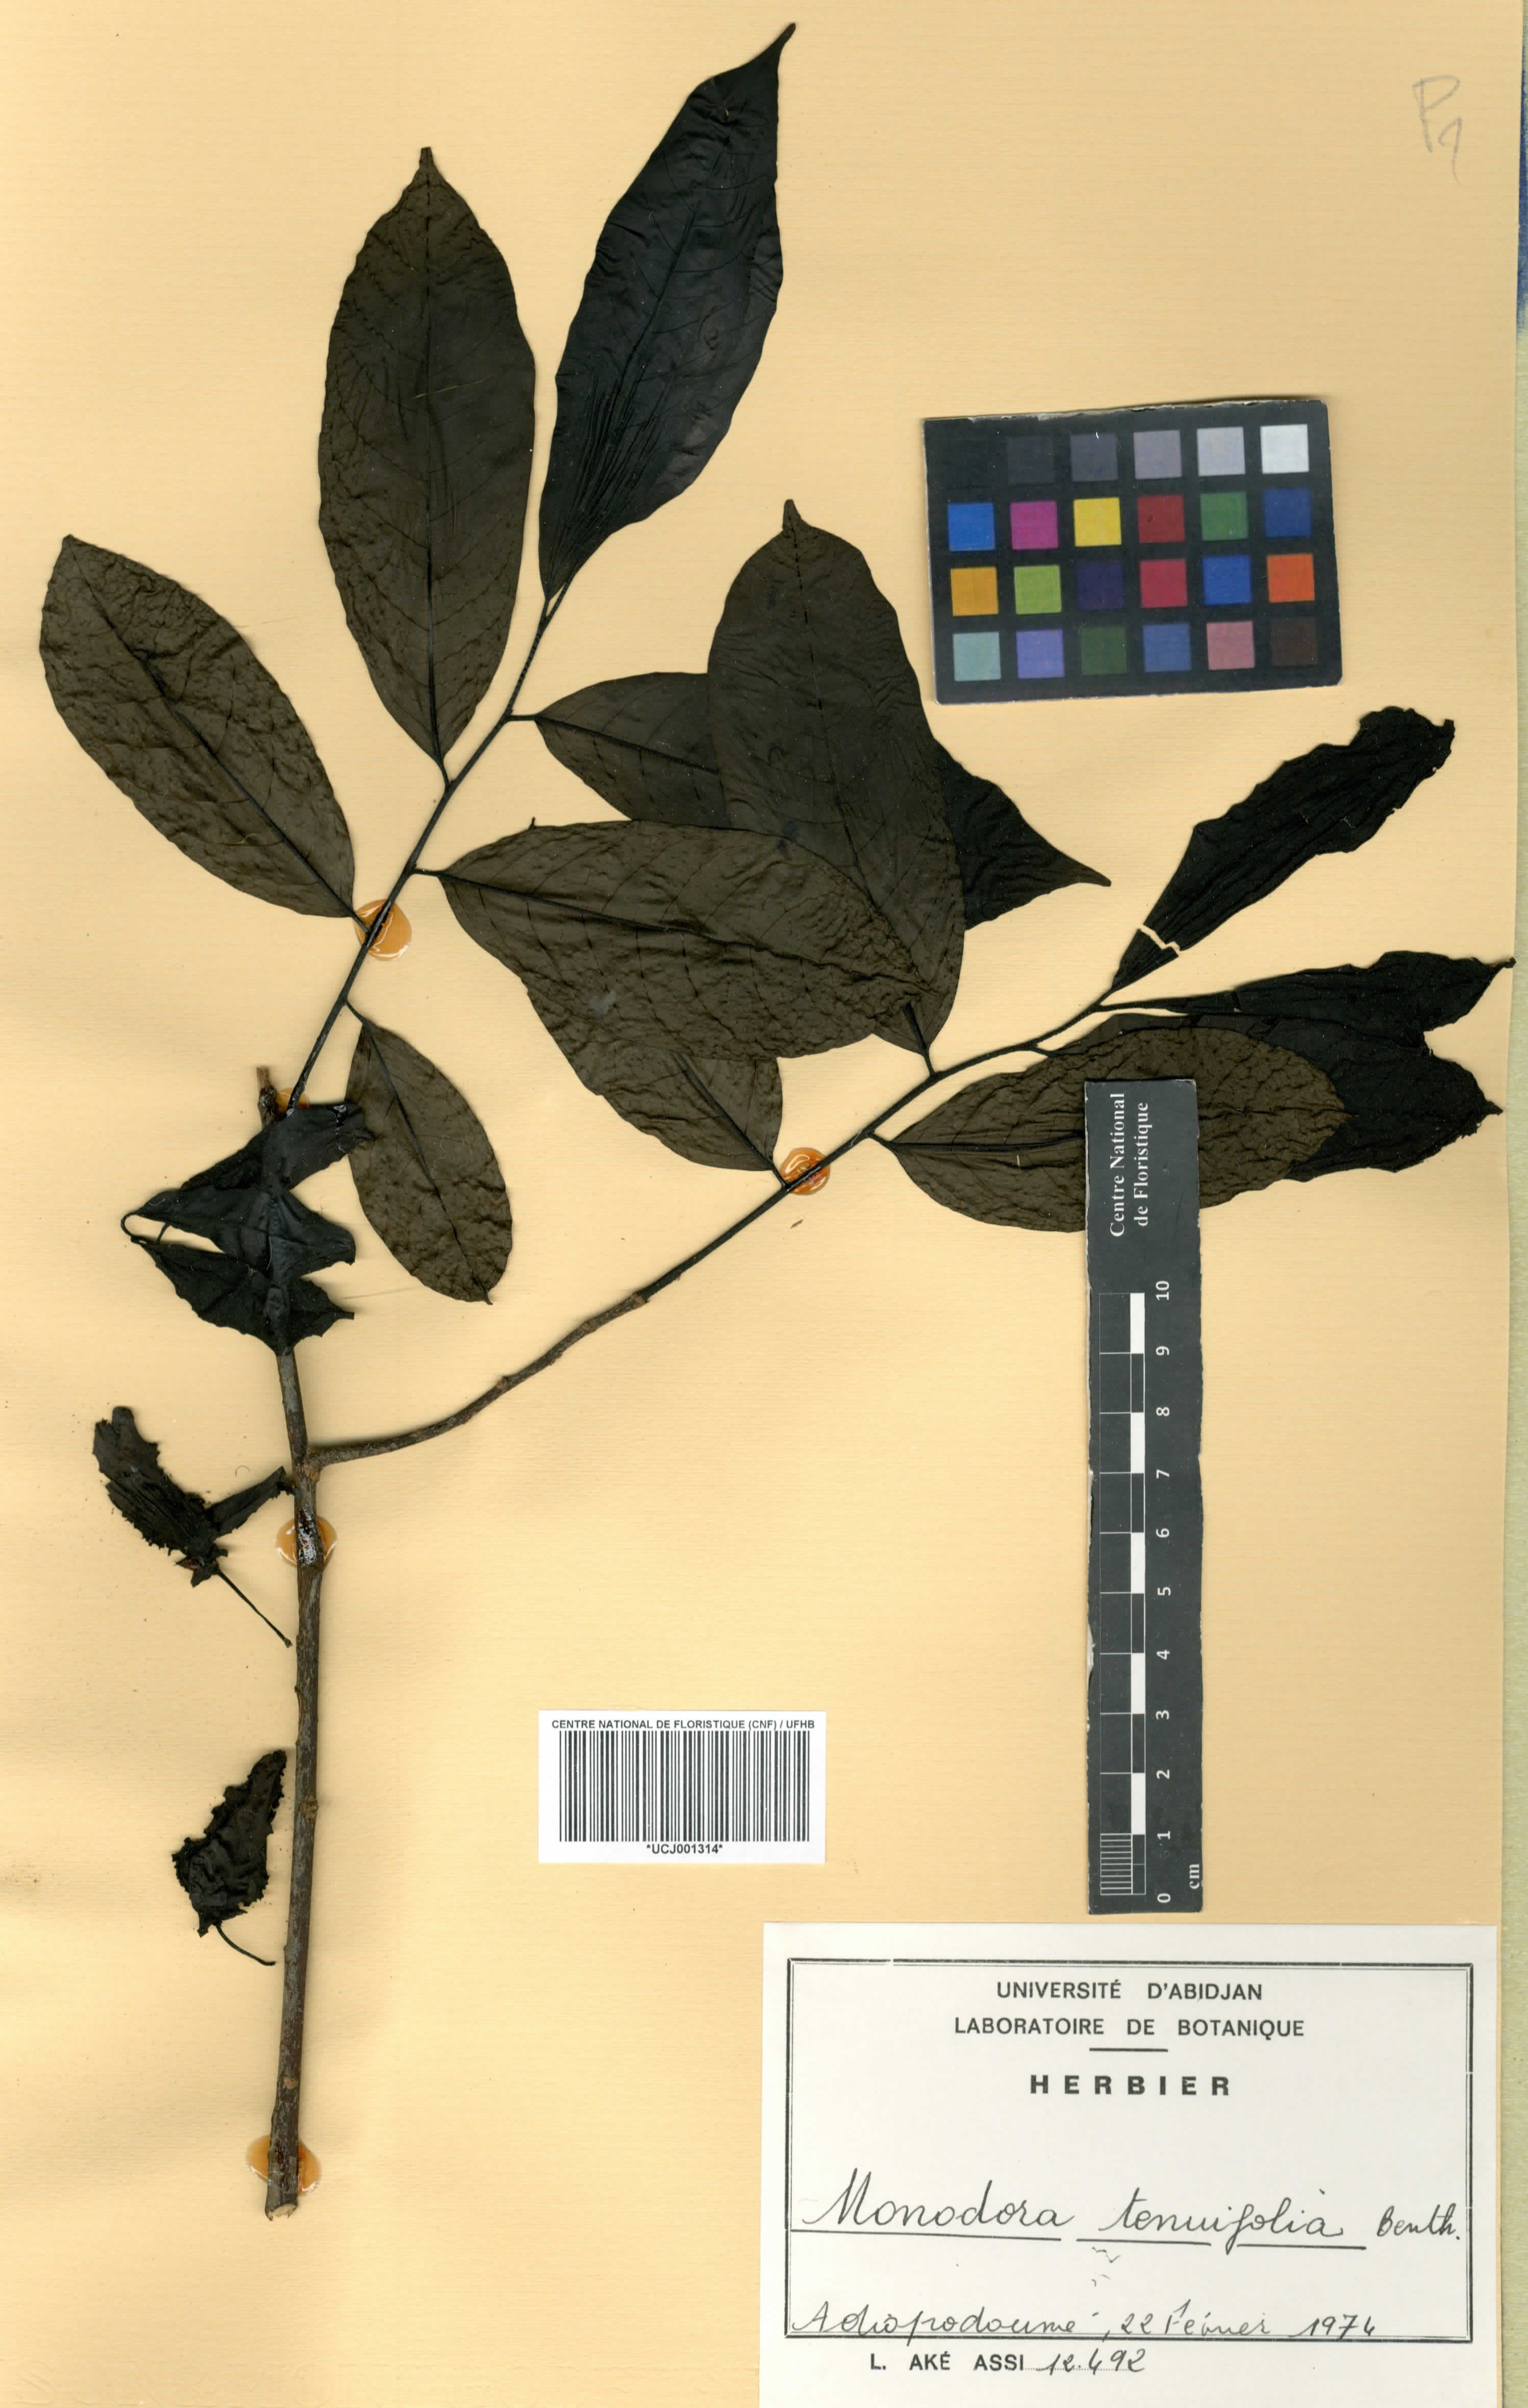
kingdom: Plantae
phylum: Tracheophyta
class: Magnoliopsida
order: Magnoliales
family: Annonaceae
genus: Monodora
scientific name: Monodora tenuifolia
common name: Orchidtree
